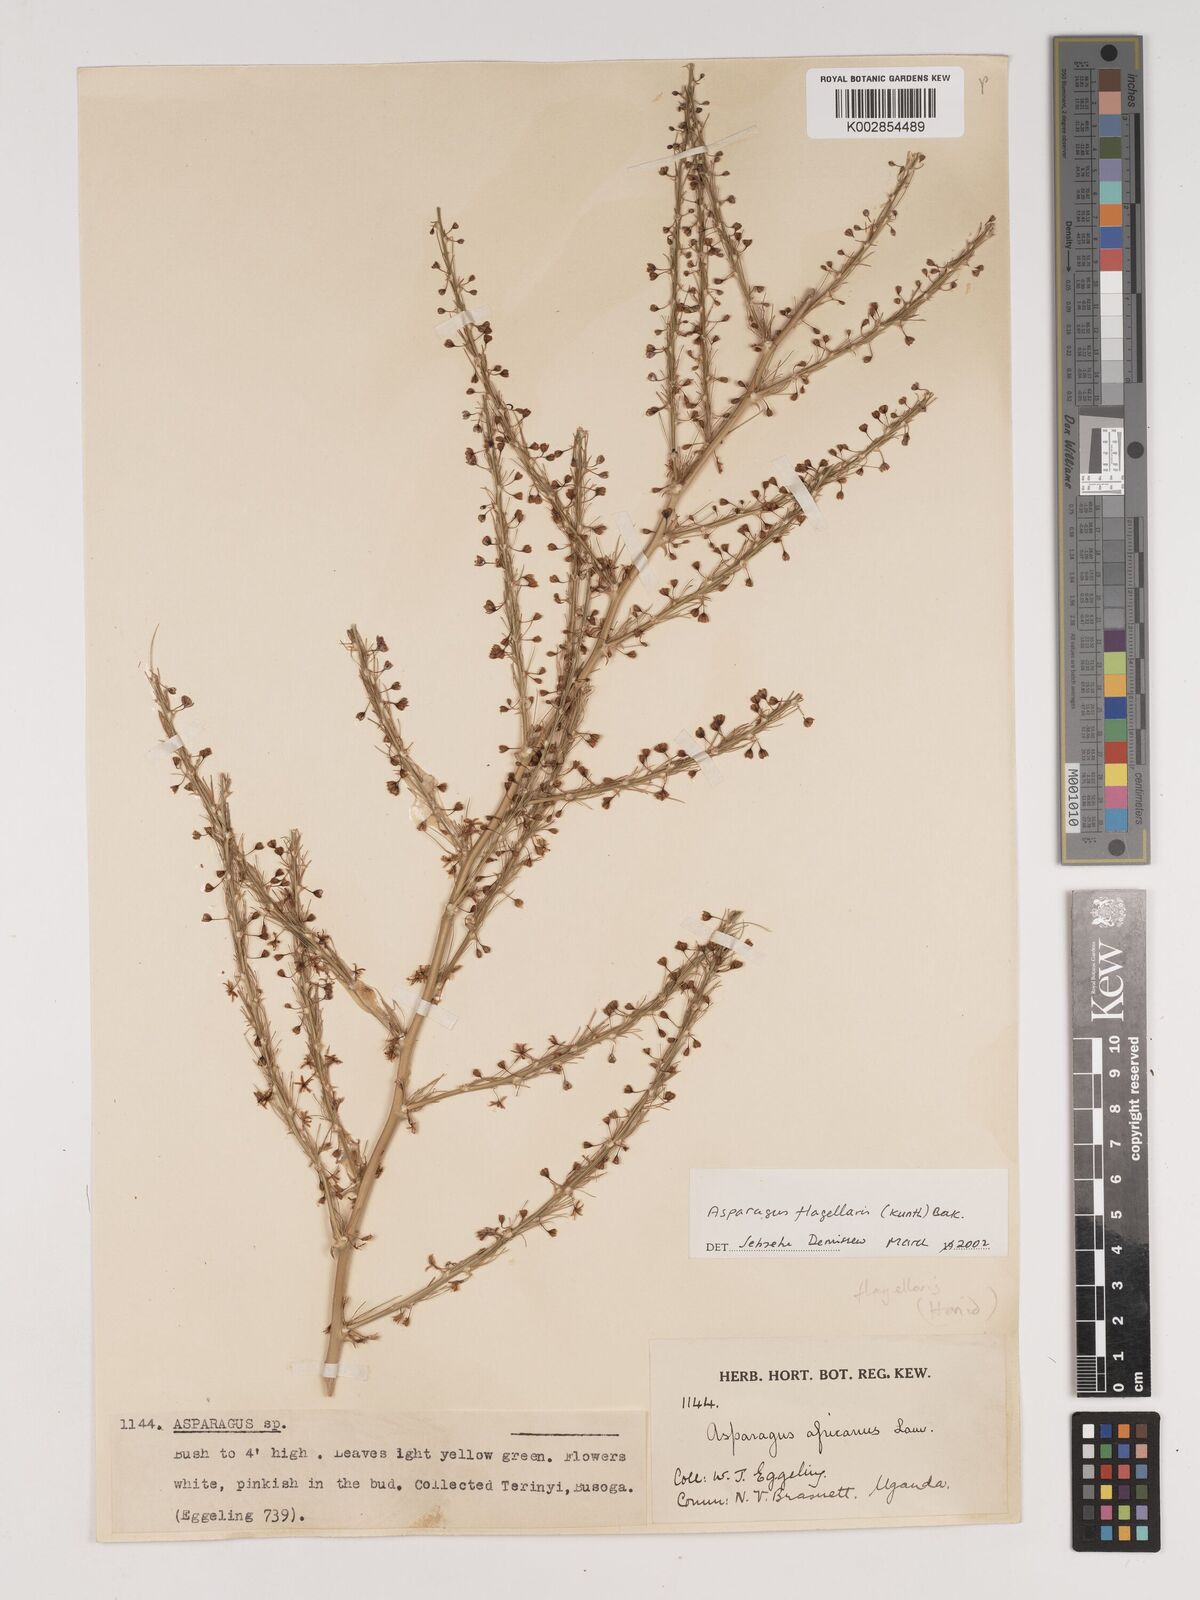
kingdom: Plantae
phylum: Tracheophyta
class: Liliopsida
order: Asparagales
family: Asparagaceae
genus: Asparagus
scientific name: Asparagus flagellaris
